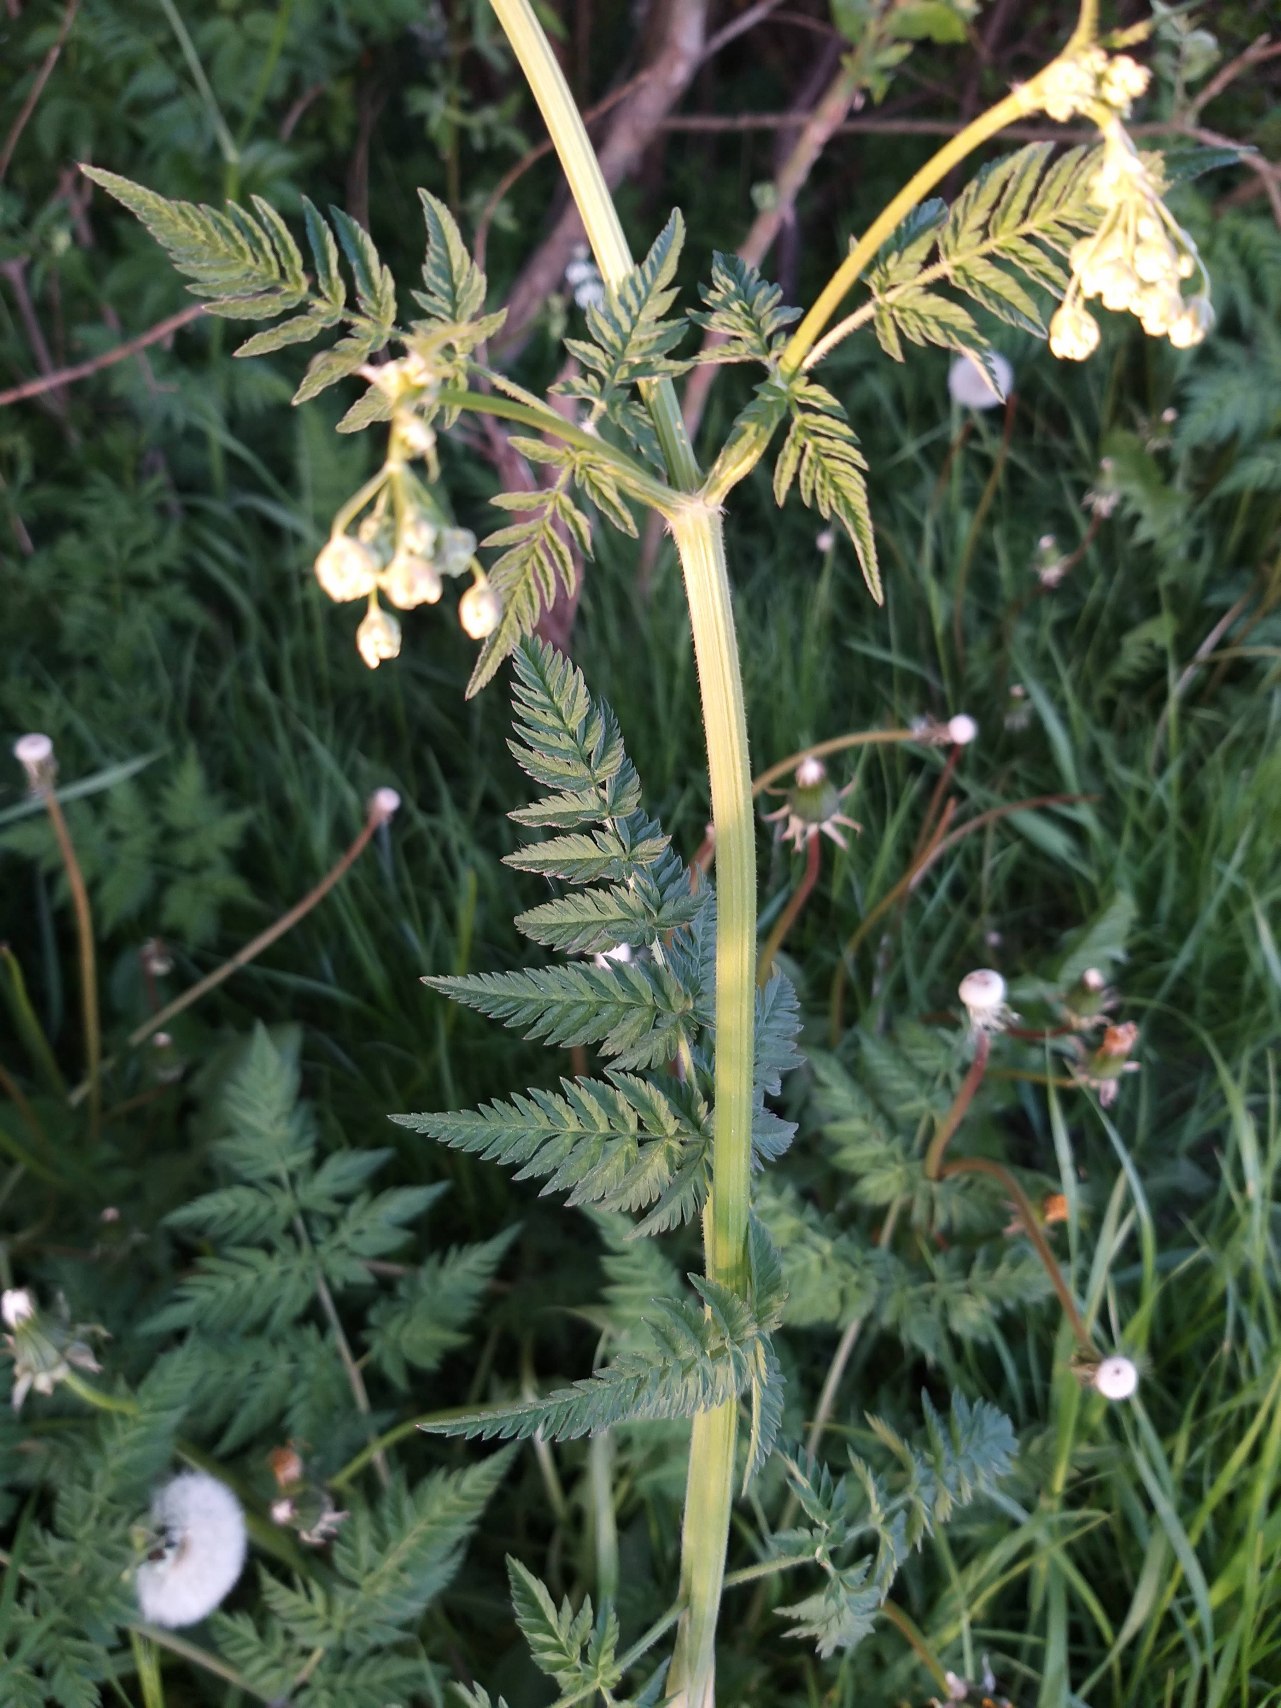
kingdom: Plantae
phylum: Tracheophyta
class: Magnoliopsida
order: Apiales
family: Apiaceae
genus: Anthriscus
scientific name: Anthriscus sylvestris
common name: Vild kørvel
